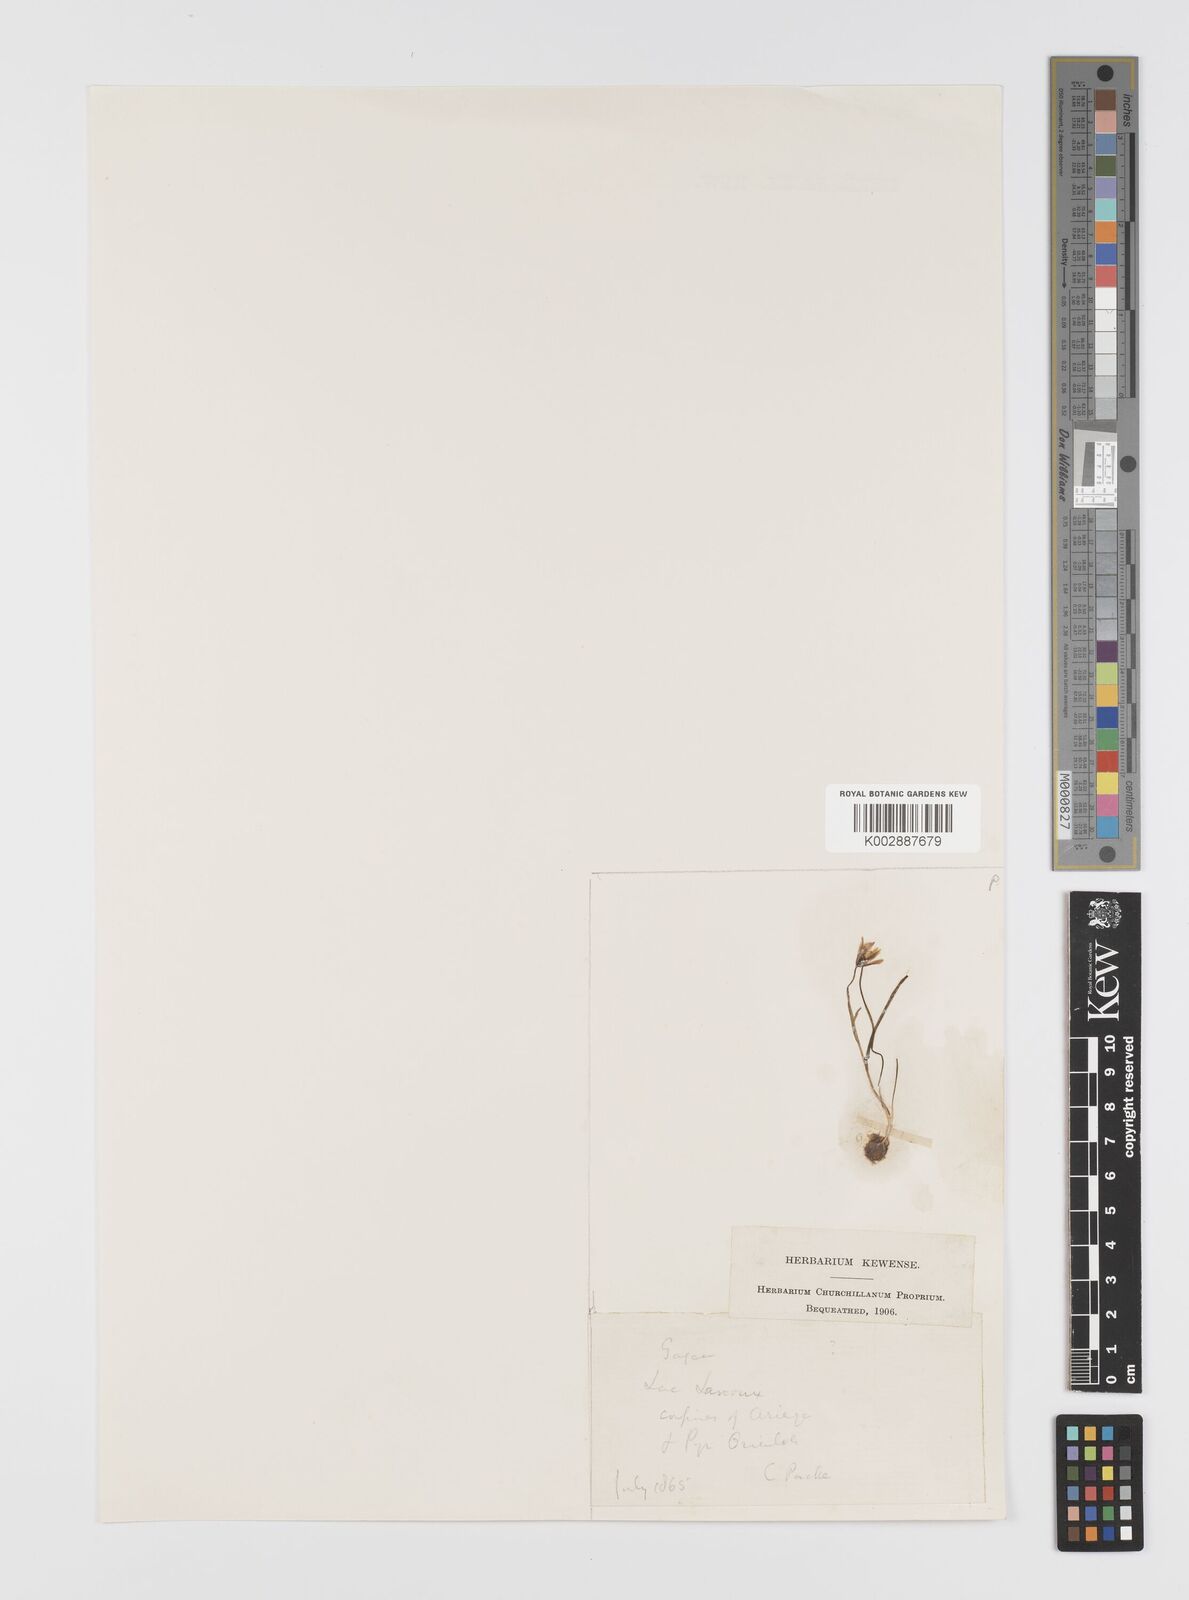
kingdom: Plantae
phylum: Tracheophyta
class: Liliopsida
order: Liliales
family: Liliaceae
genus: Gagea
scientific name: Gagea
